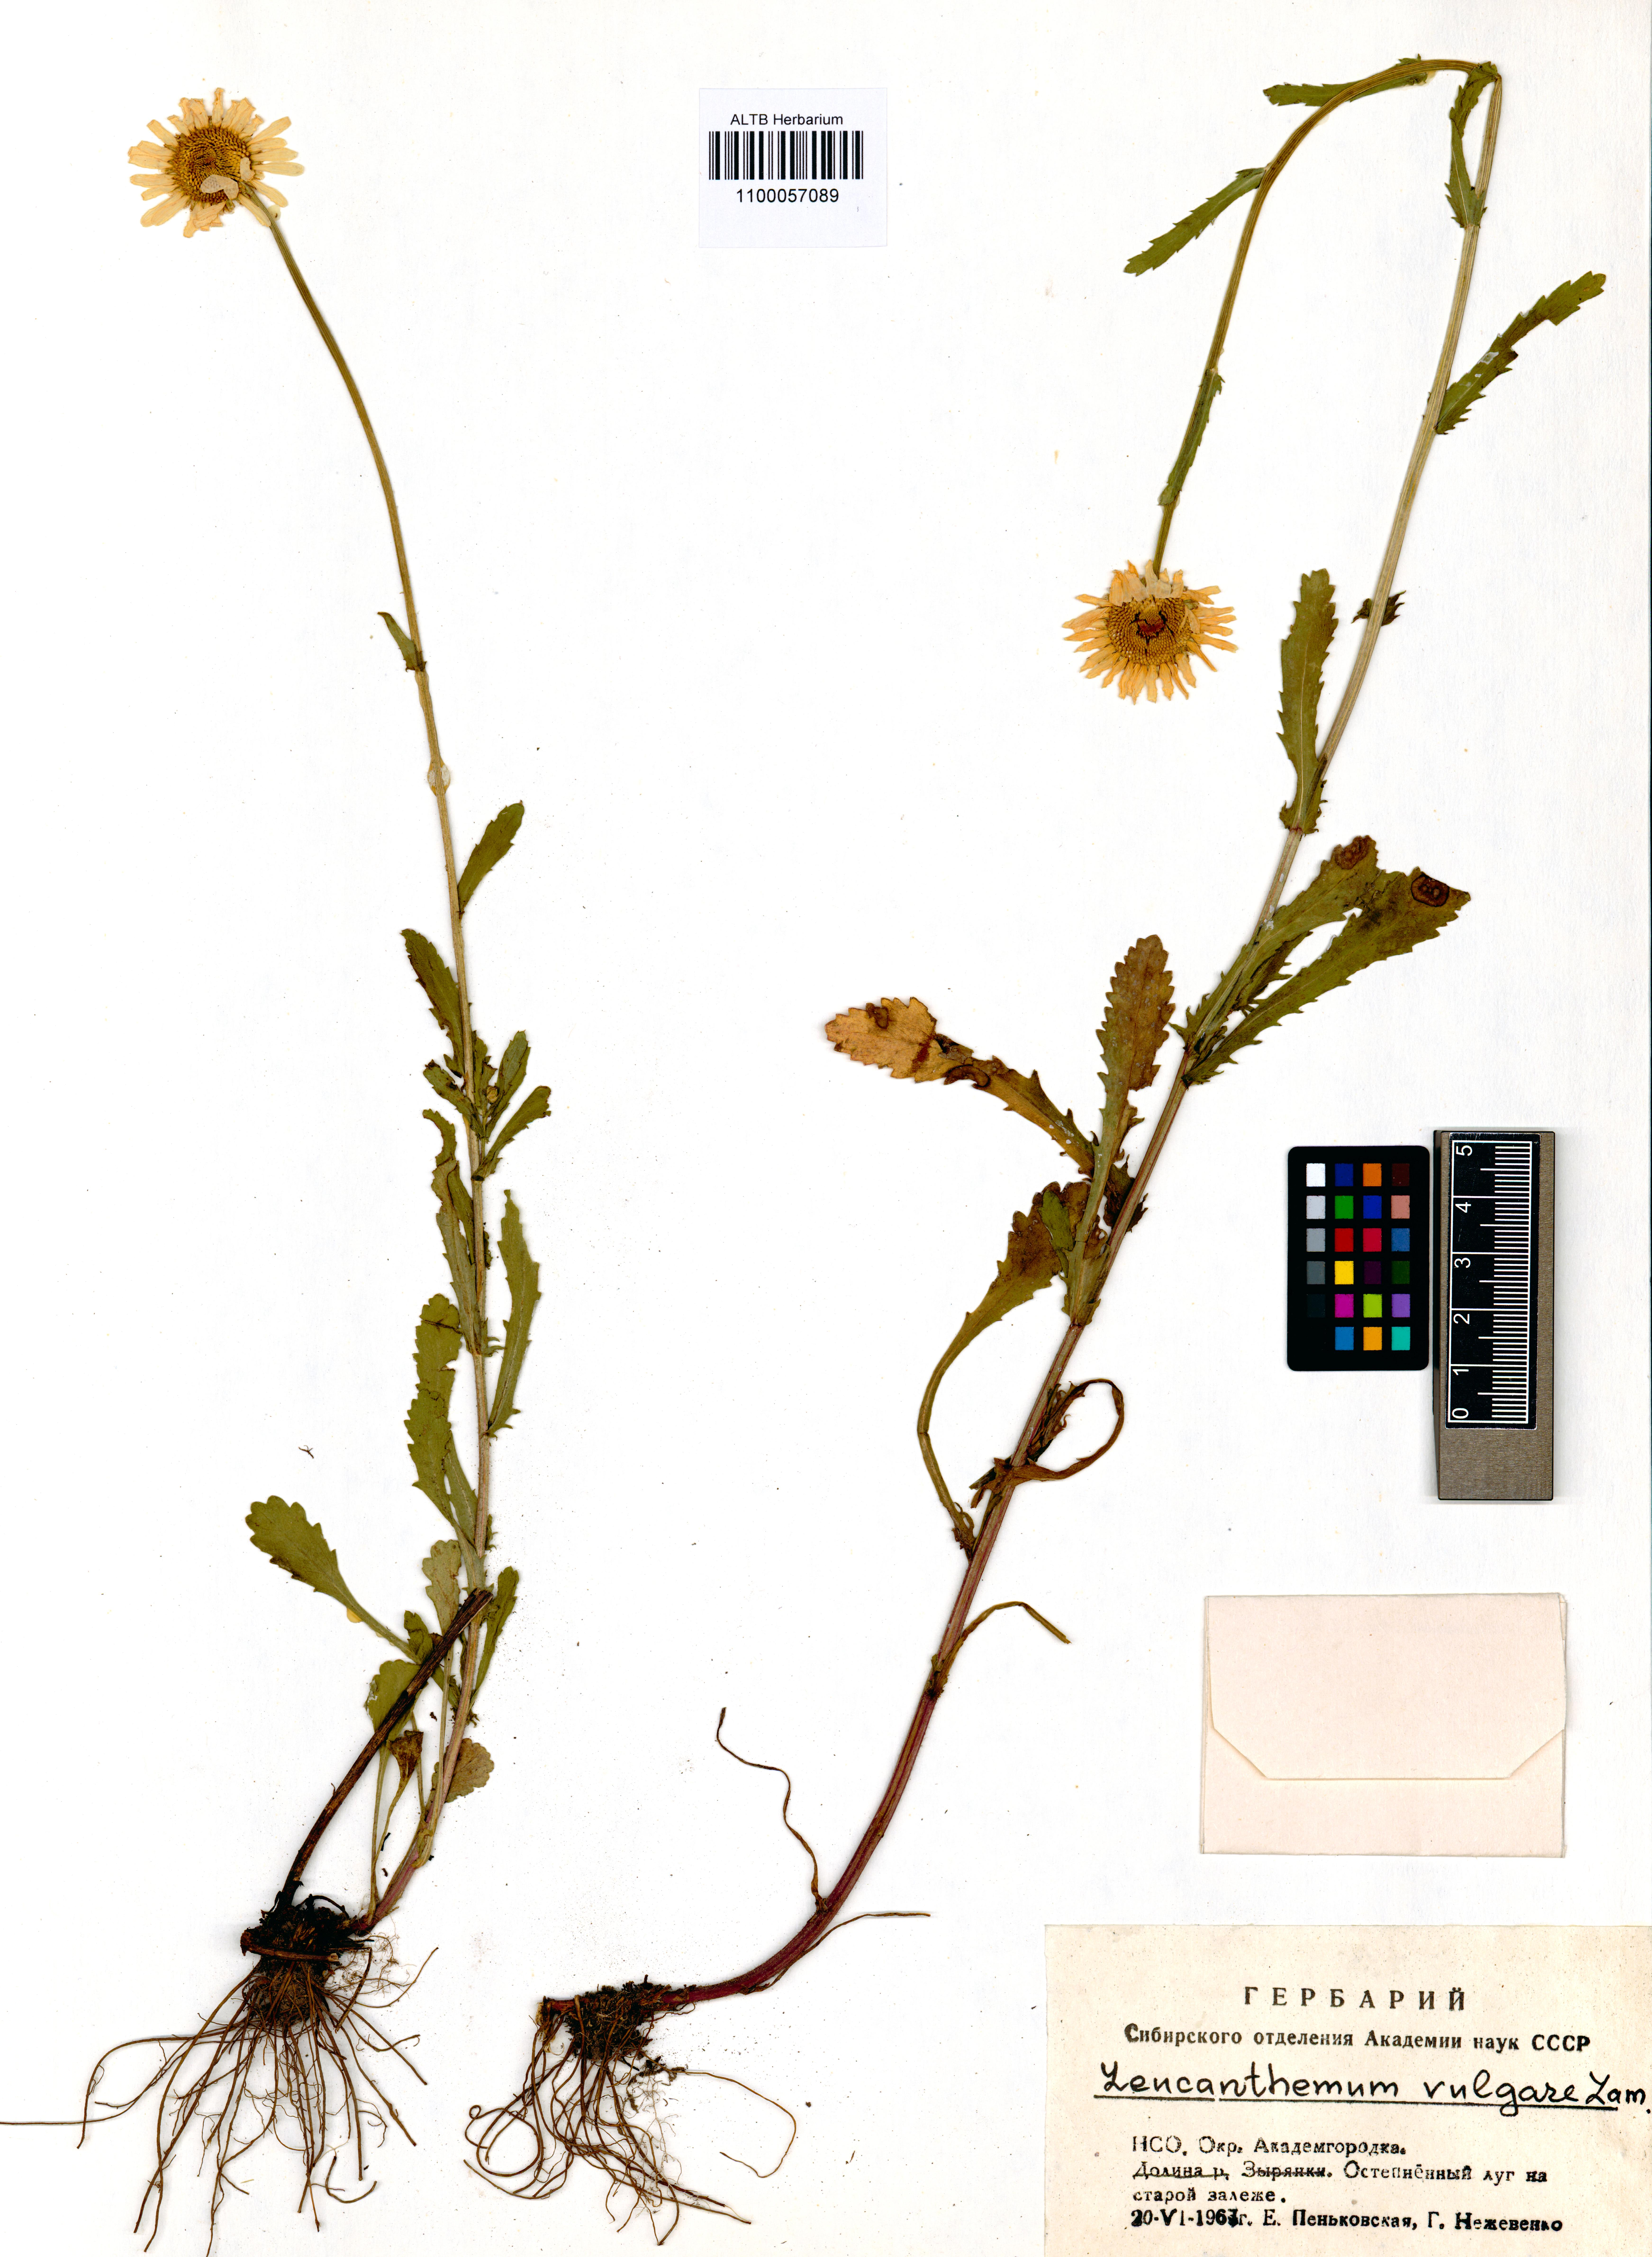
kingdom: Plantae
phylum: Tracheophyta
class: Magnoliopsida
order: Asterales
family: Asteraceae
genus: Leucanthemum
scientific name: Leucanthemum vulgare
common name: Oxeye daisy
